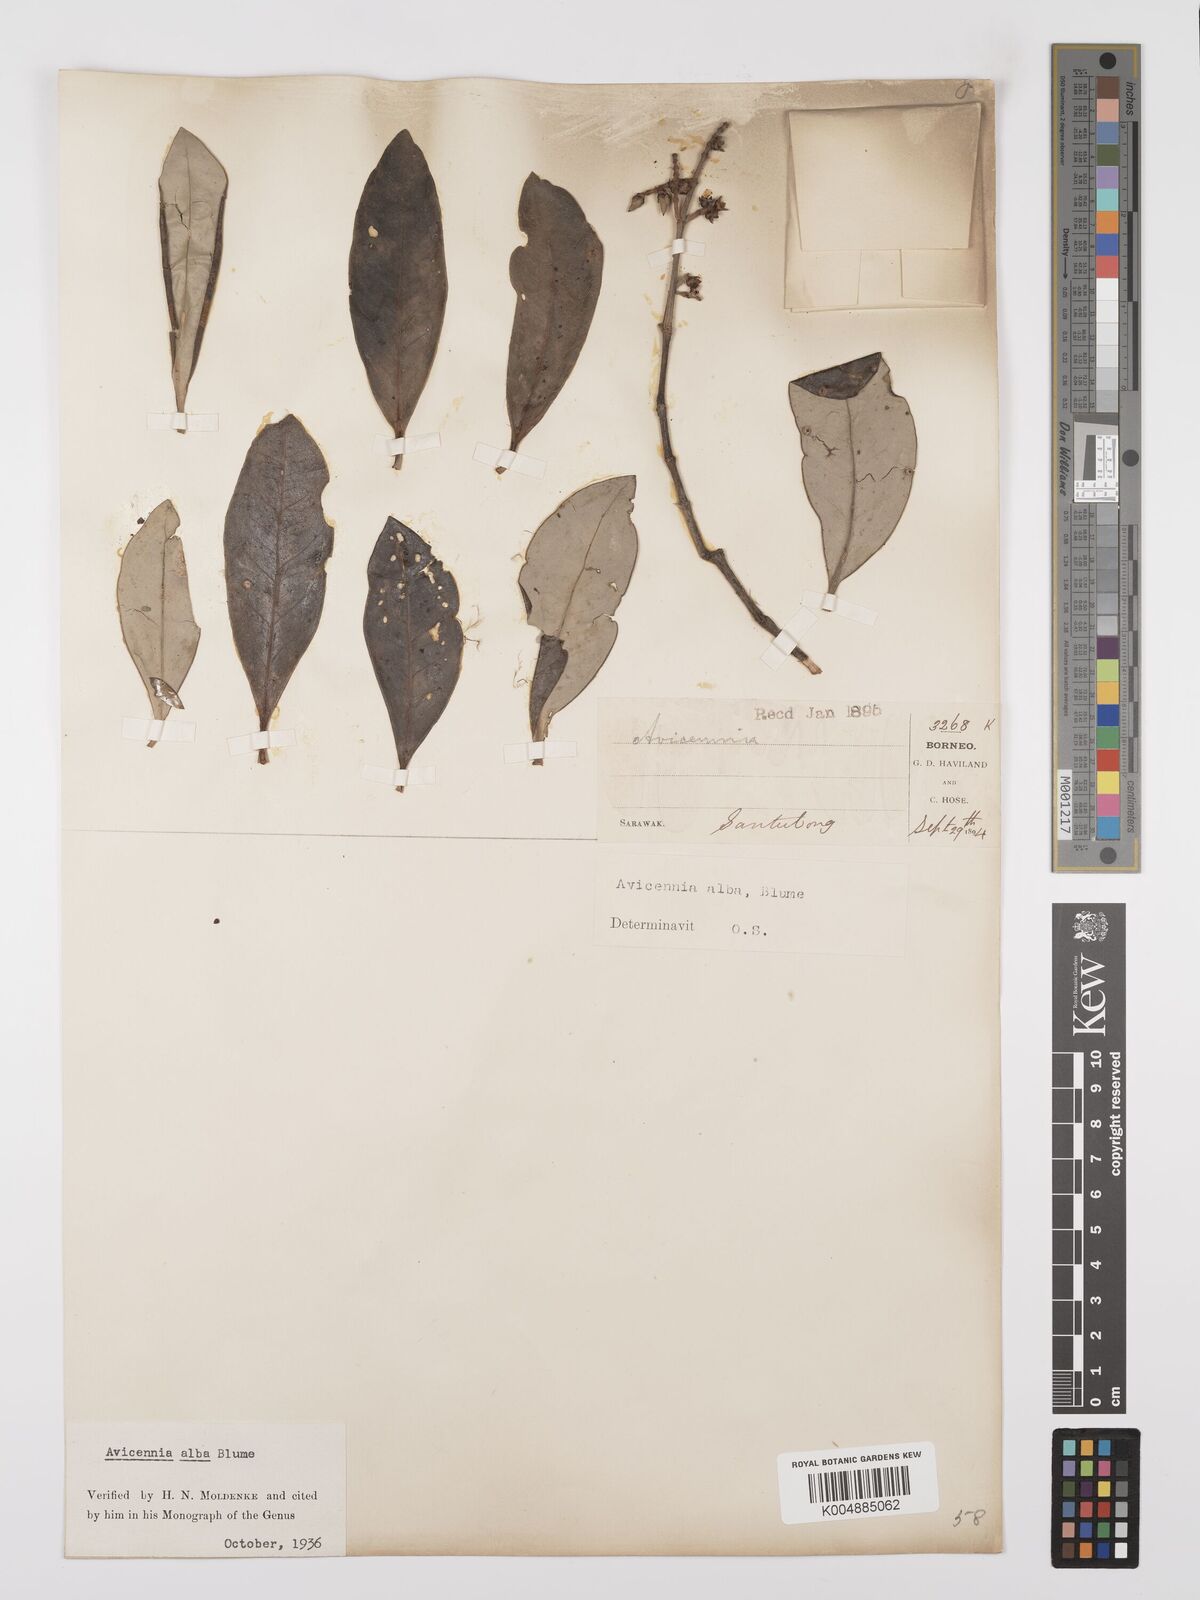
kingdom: Plantae
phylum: Tracheophyta
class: Magnoliopsida
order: Lamiales
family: Acanthaceae
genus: Avicennia
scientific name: Avicennia alba
